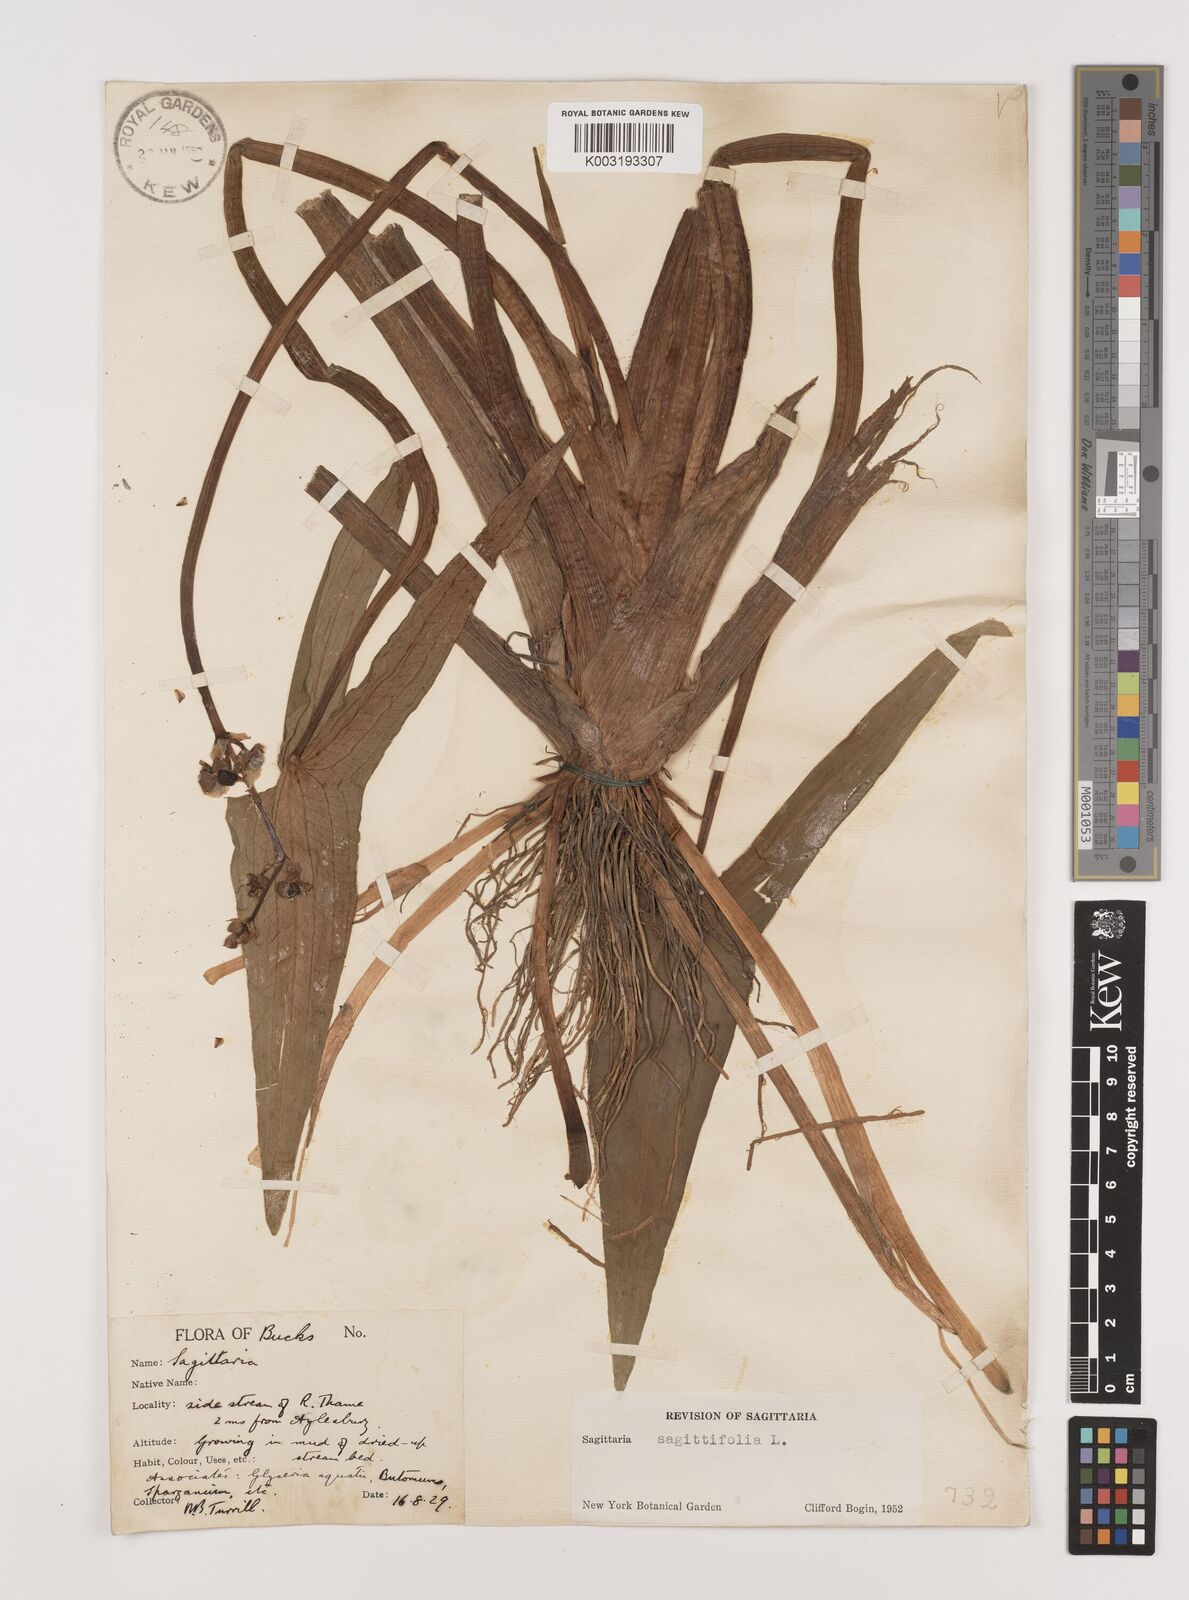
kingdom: Plantae
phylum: Tracheophyta
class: Liliopsida
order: Alismatales
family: Alismataceae
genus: Sagittaria
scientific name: Sagittaria sagittifolia
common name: Arrowhead
